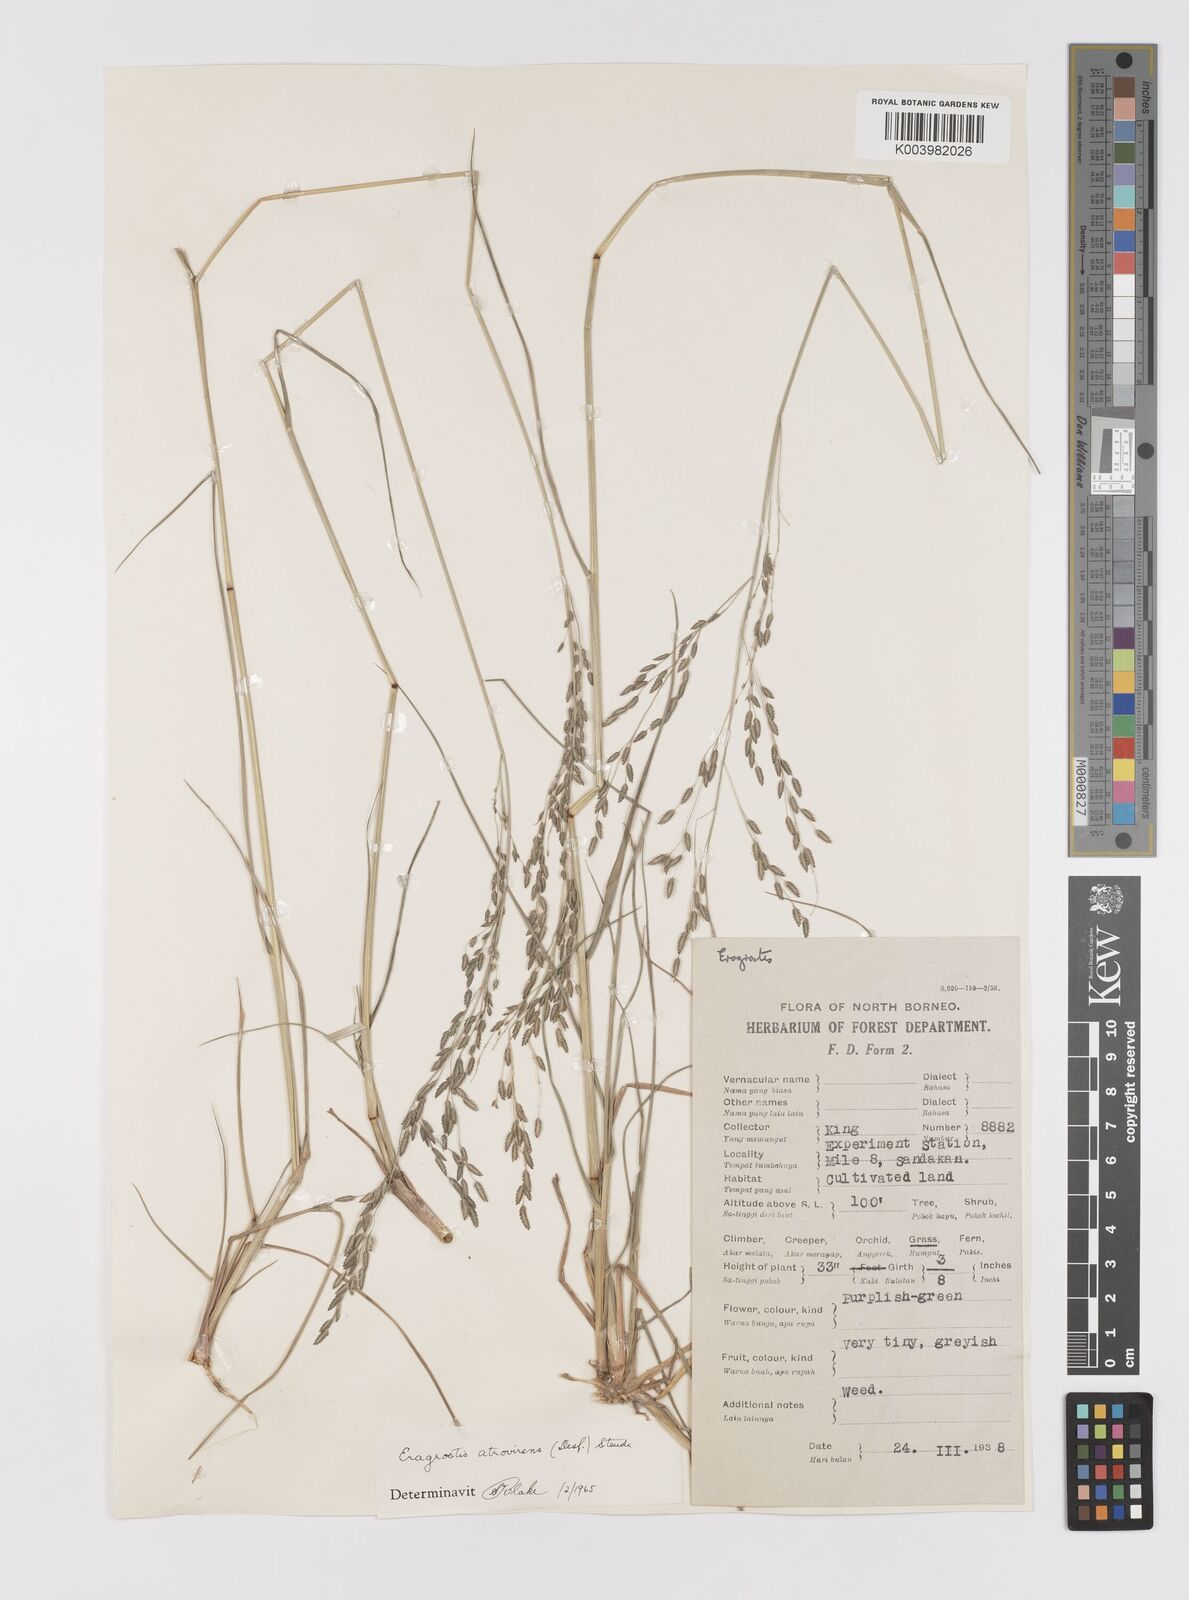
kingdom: Plantae
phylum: Tracheophyta
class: Liliopsida
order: Poales
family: Poaceae
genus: Eragrostis
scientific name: Eragrostis atrovirens
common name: Thalia lovegrass
